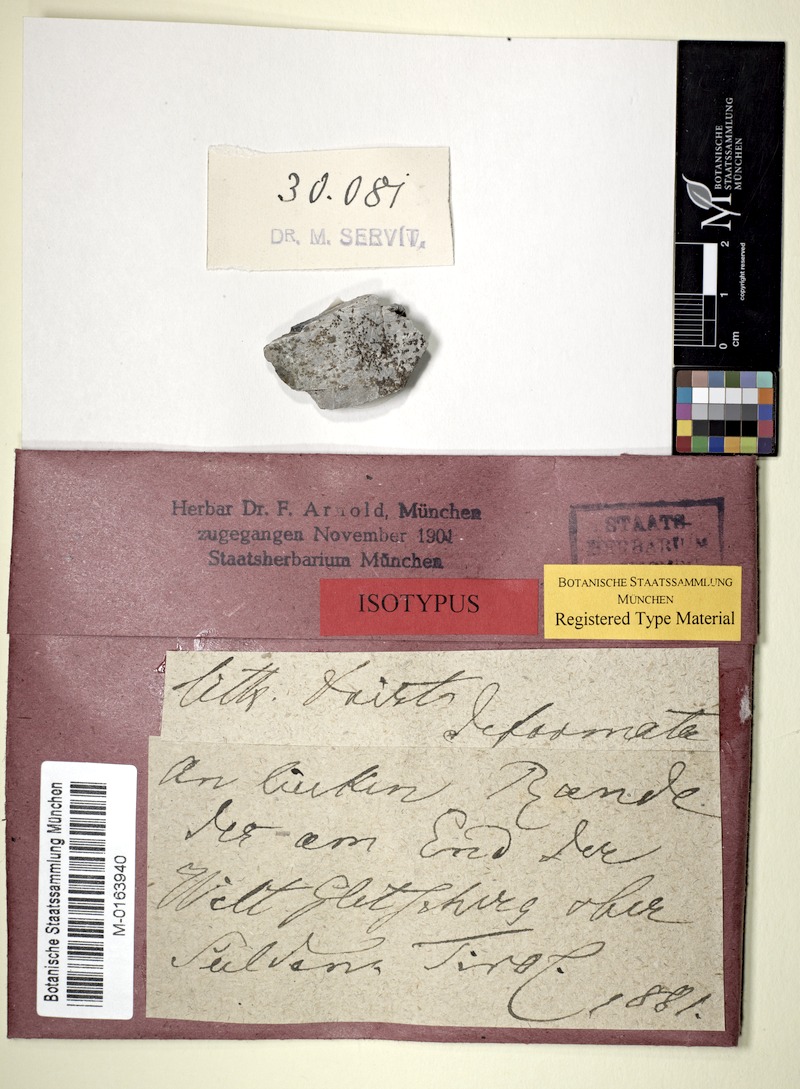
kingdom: Fungi
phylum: Ascomycota
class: Eurotiomycetes
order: Verrucariales
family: Verrucariaceae
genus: Verrucaria
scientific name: Verrucaria Lithocia tristis
